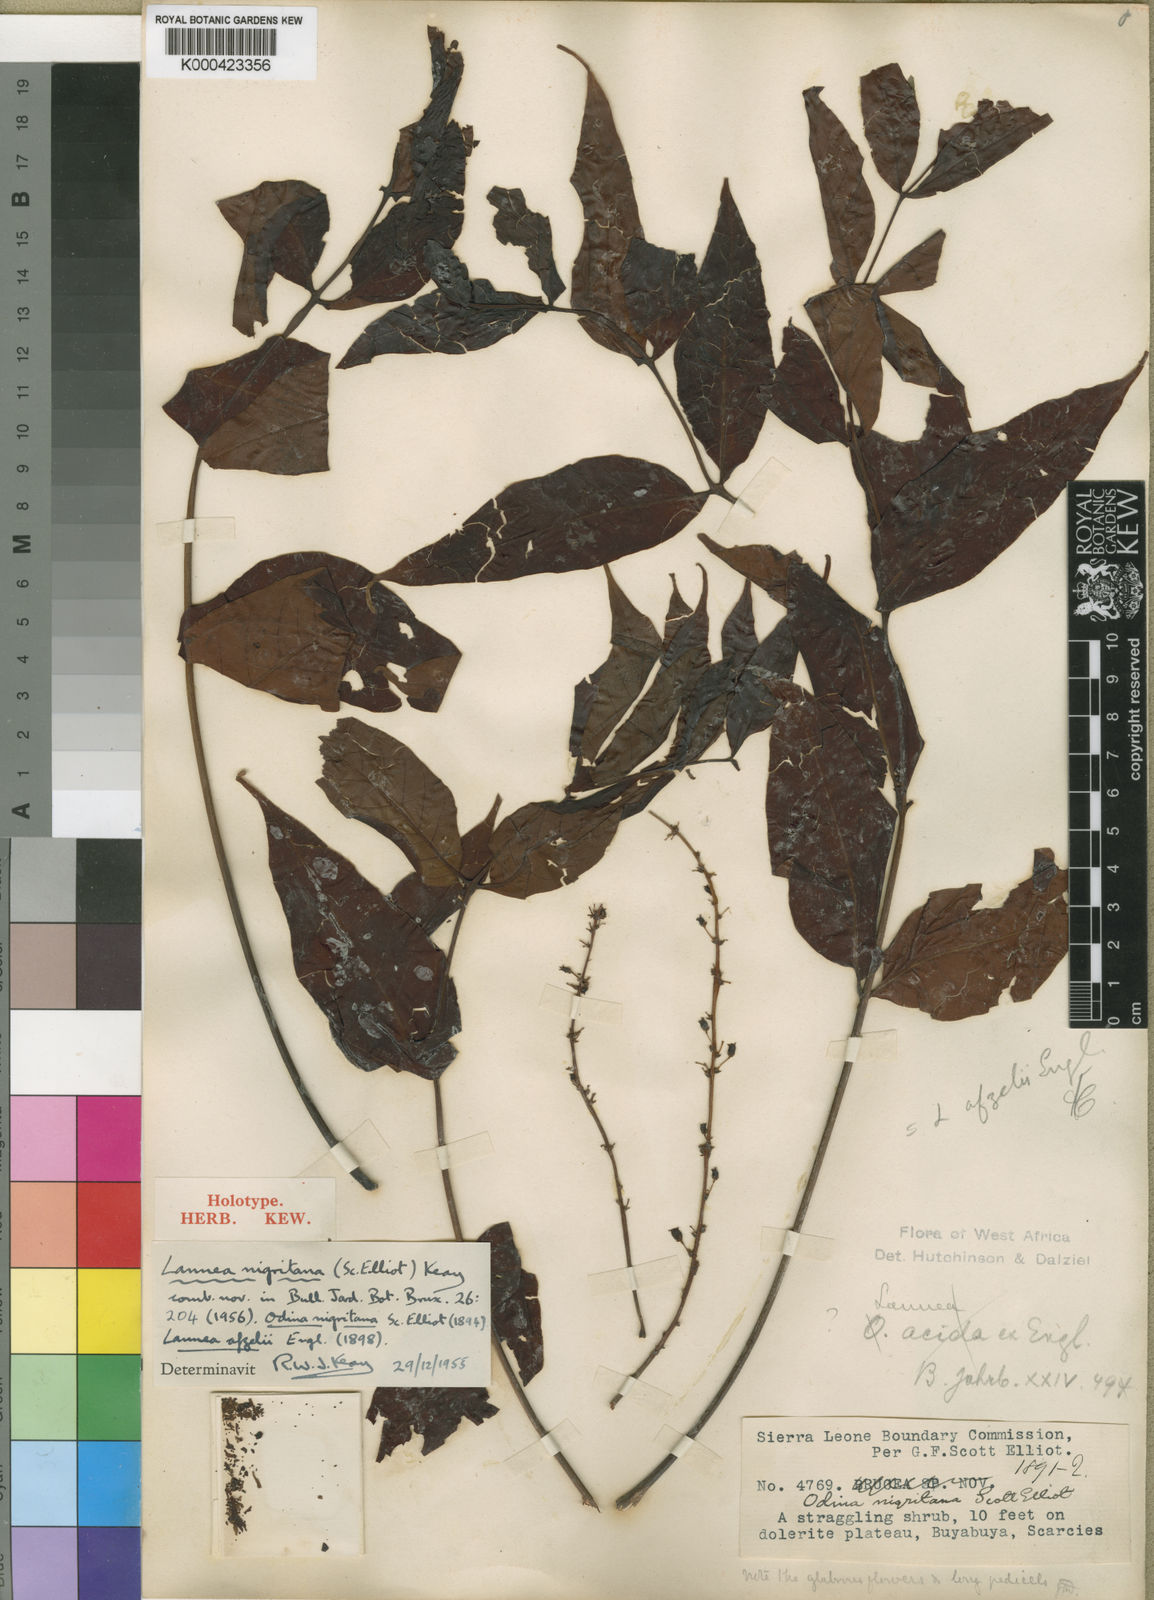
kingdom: Plantae
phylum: Tracheophyta
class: Magnoliopsida
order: Sapindales
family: Anacardiaceae
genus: Lannea
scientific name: Lannea nigritana
